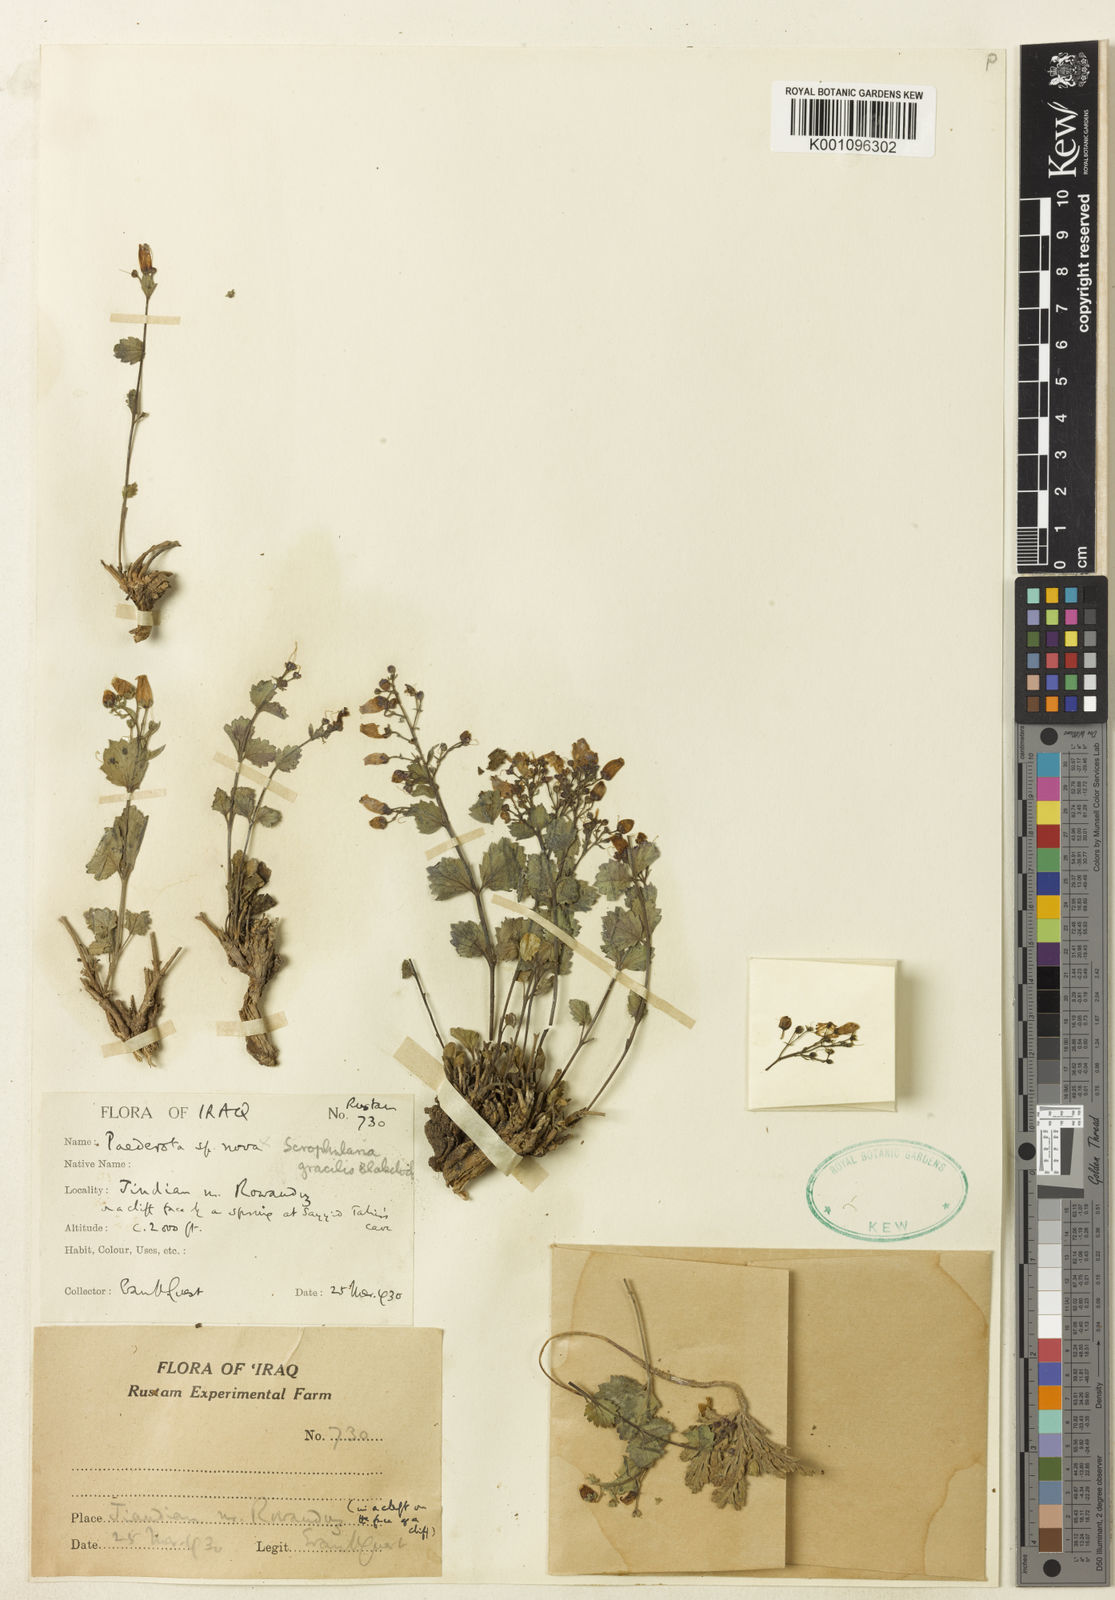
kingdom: Plantae
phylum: Tracheophyta
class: Magnoliopsida
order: Lamiales
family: Scrophulariaceae
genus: Scrophularia
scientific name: Scrophularia gracilis
